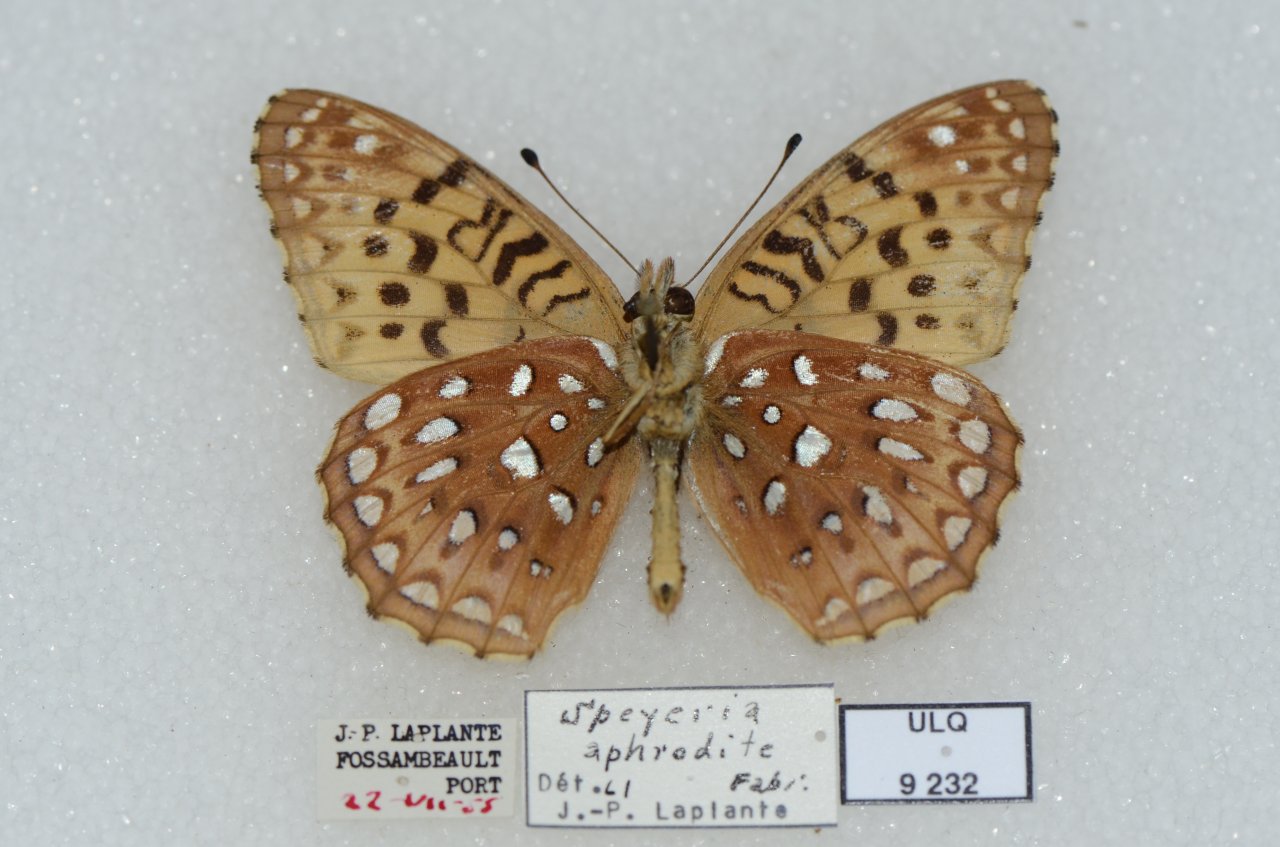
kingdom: Animalia
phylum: Arthropoda
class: Insecta
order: Lepidoptera
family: Nymphalidae
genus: Speyeria
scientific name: Speyeria aphrodite
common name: Aphrodite Fritillary
